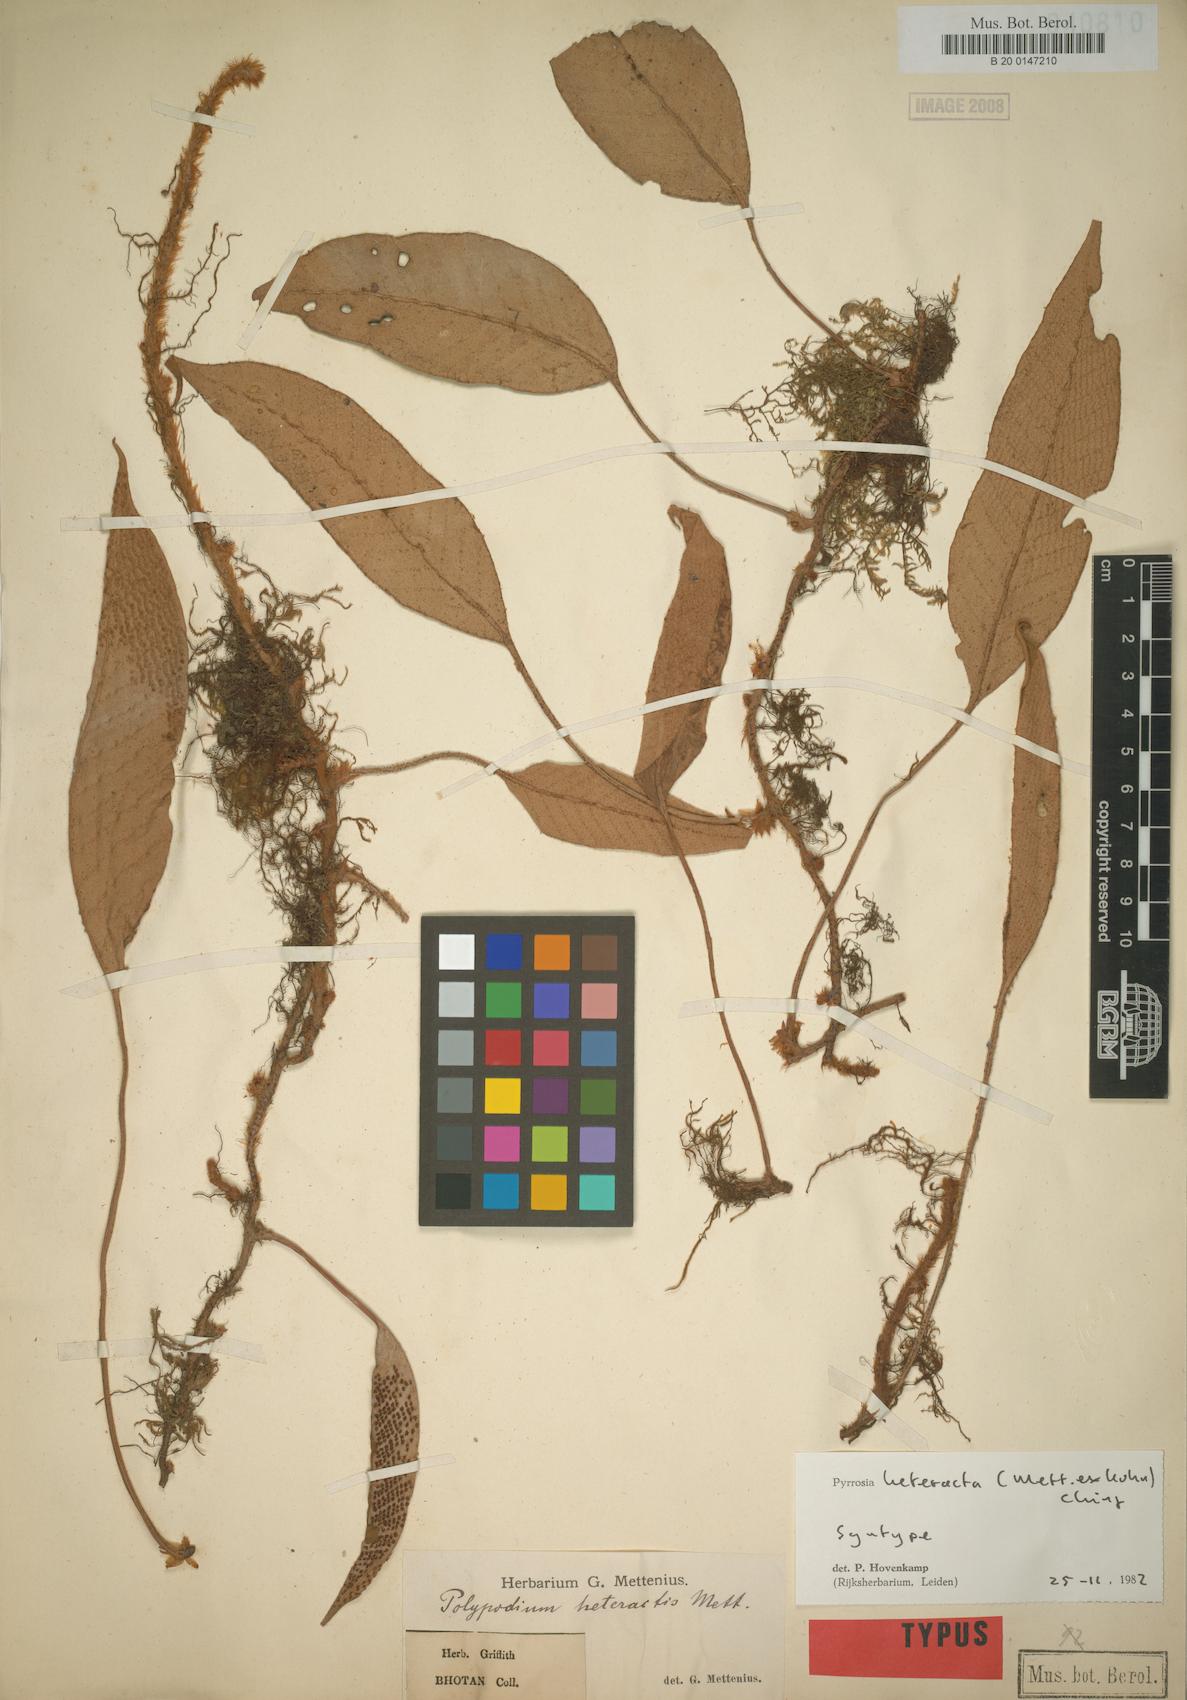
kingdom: Plantae
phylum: Tracheophyta
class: Polypodiopsida
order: Polypodiales
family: Polypodiaceae
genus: Pyrrosia
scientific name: Pyrrosia heteractis
